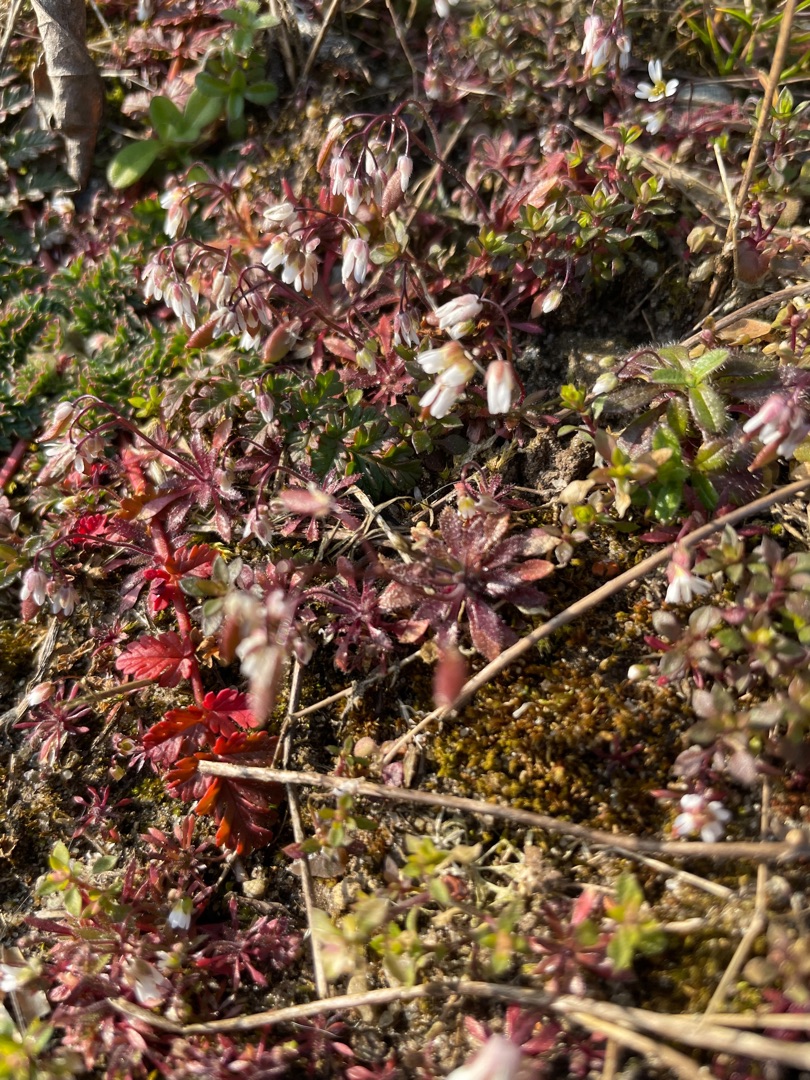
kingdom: Plantae
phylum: Tracheophyta
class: Magnoliopsida
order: Brassicales
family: Brassicaceae
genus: Draba
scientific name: Draba verna
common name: Vår-gæslingeblomst
